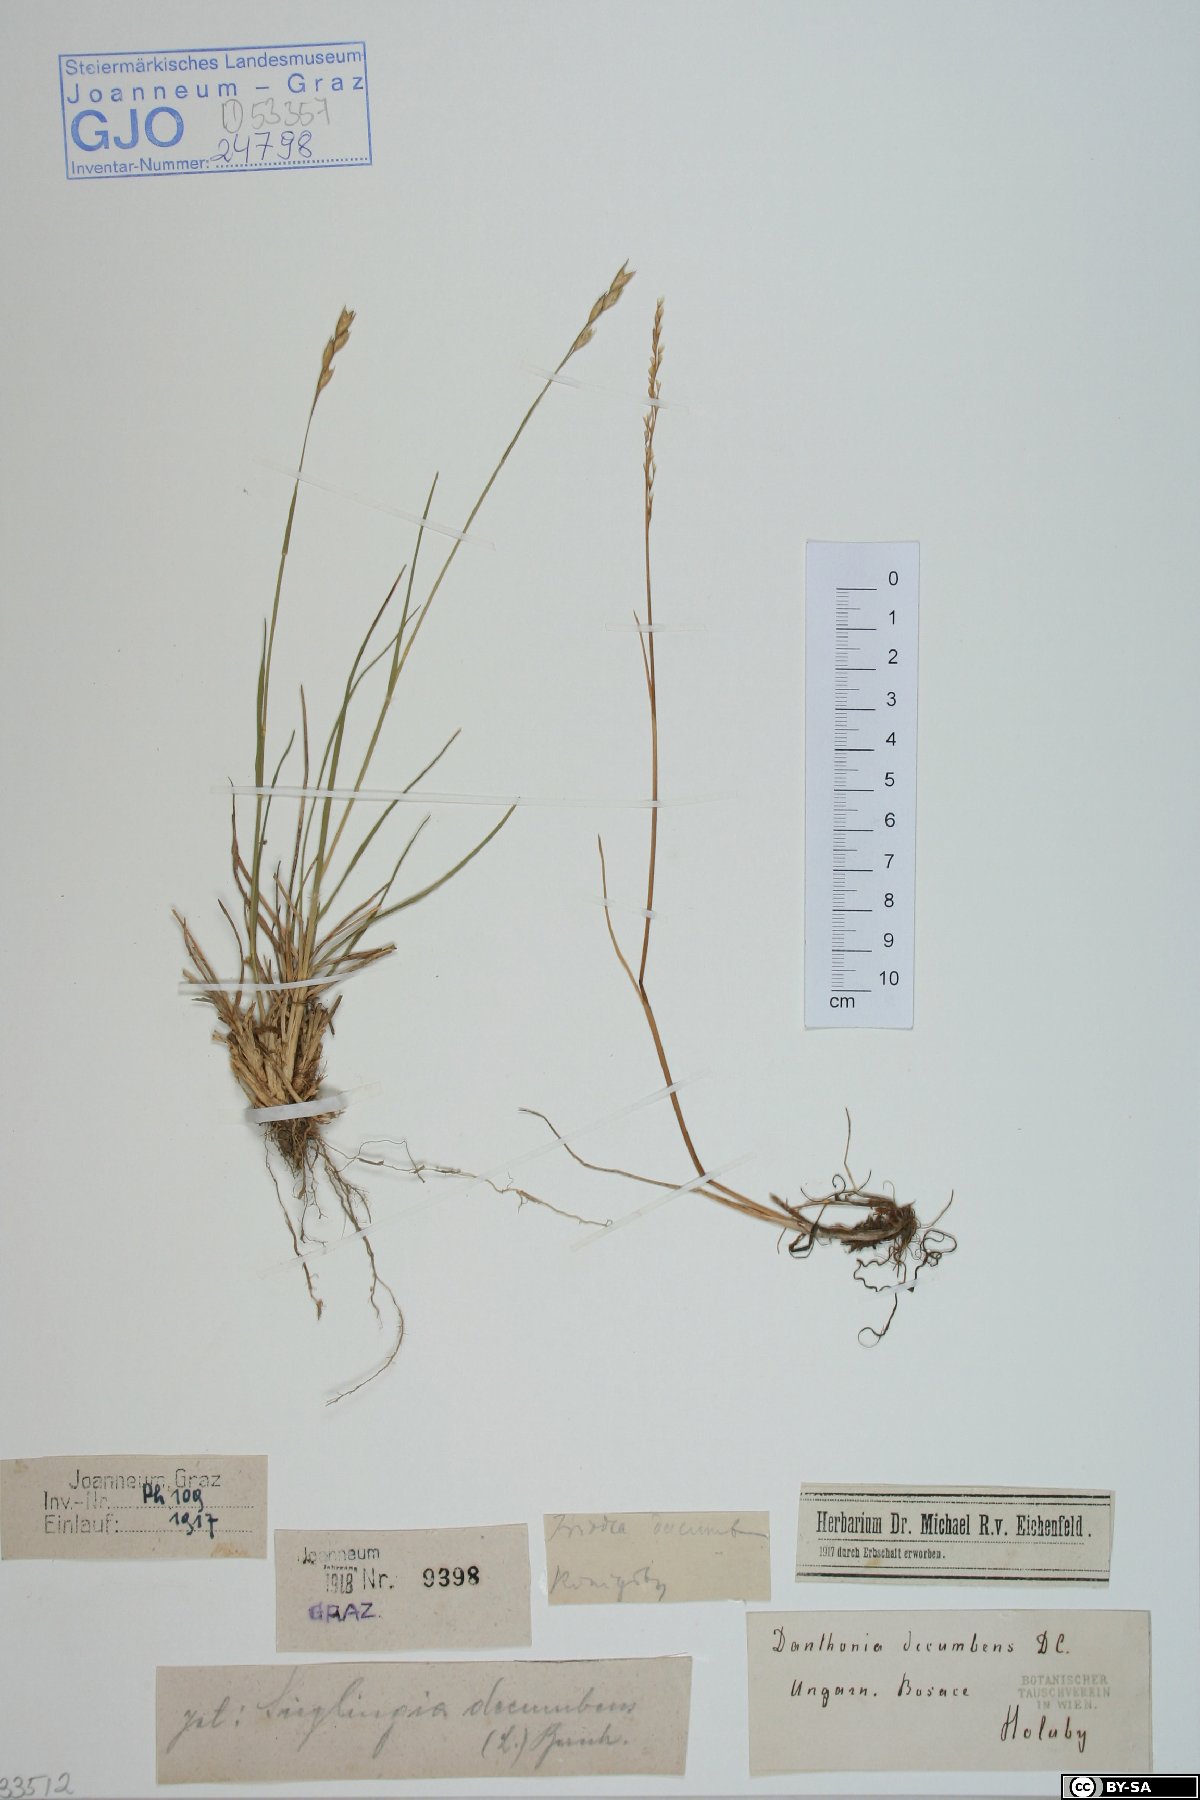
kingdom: Plantae
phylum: Tracheophyta
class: Liliopsida
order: Poales
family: Poaceae
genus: Danthonia
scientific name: Danthonia decumbens
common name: Common heathgrass
